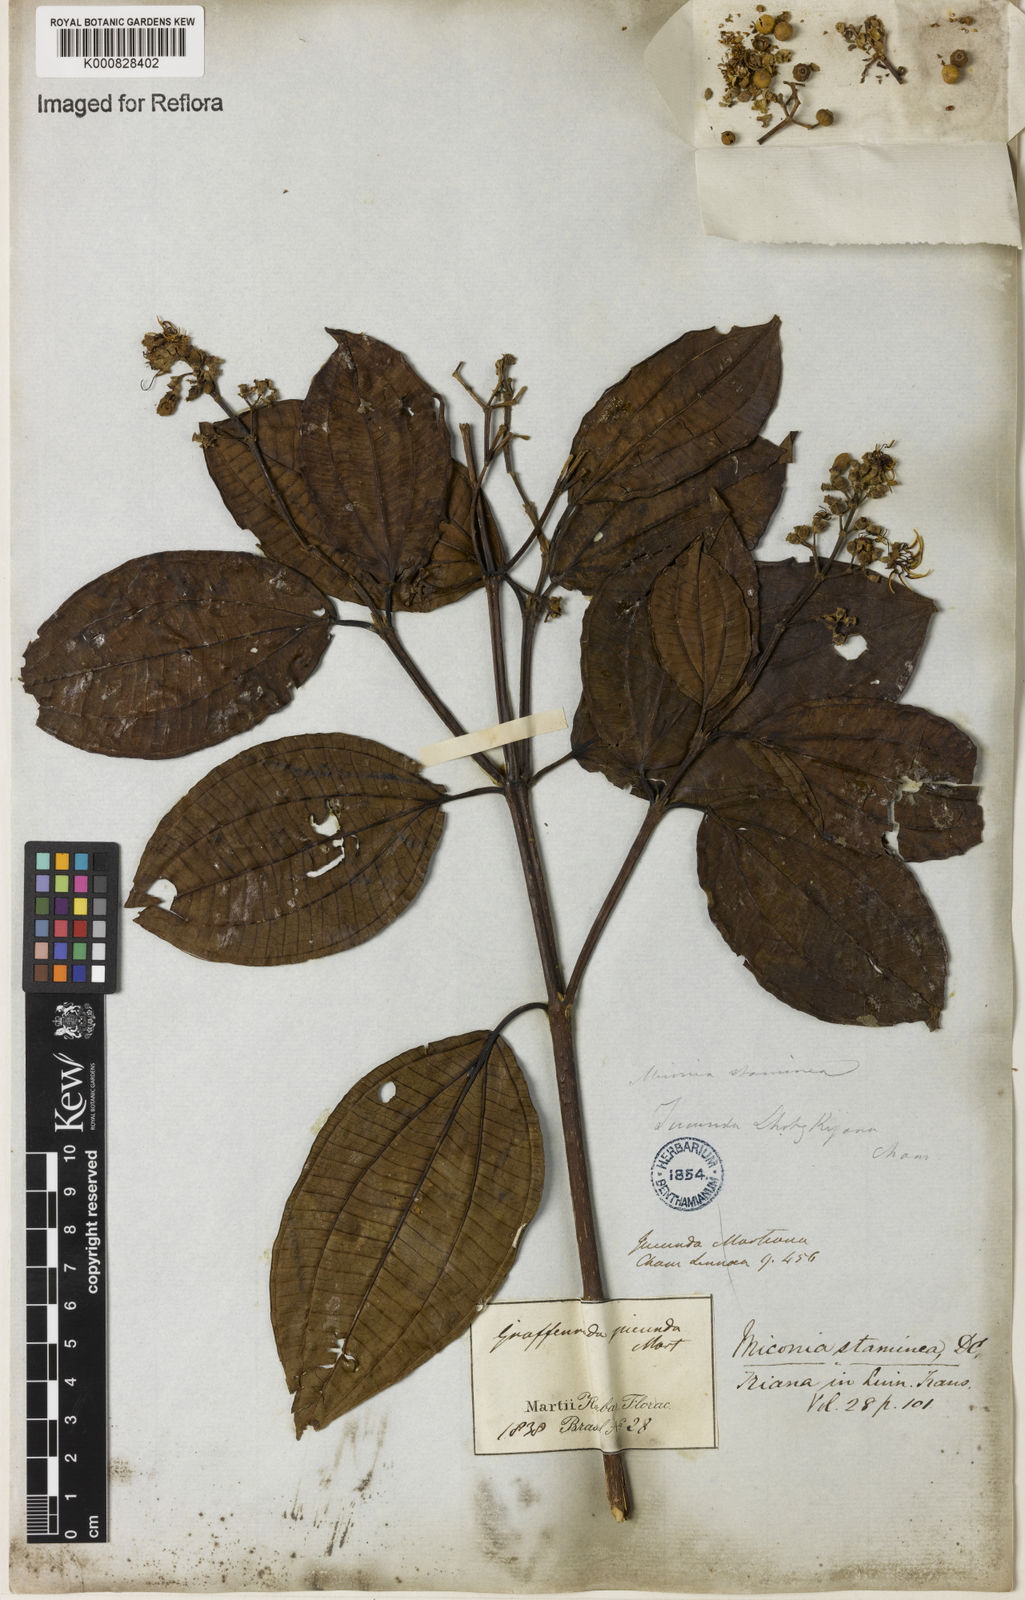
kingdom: Plantae
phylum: Tracheophyta
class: Magnoliopsida
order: Myrtales
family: Melastomataceae
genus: Miconia
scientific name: Miconia staminea
